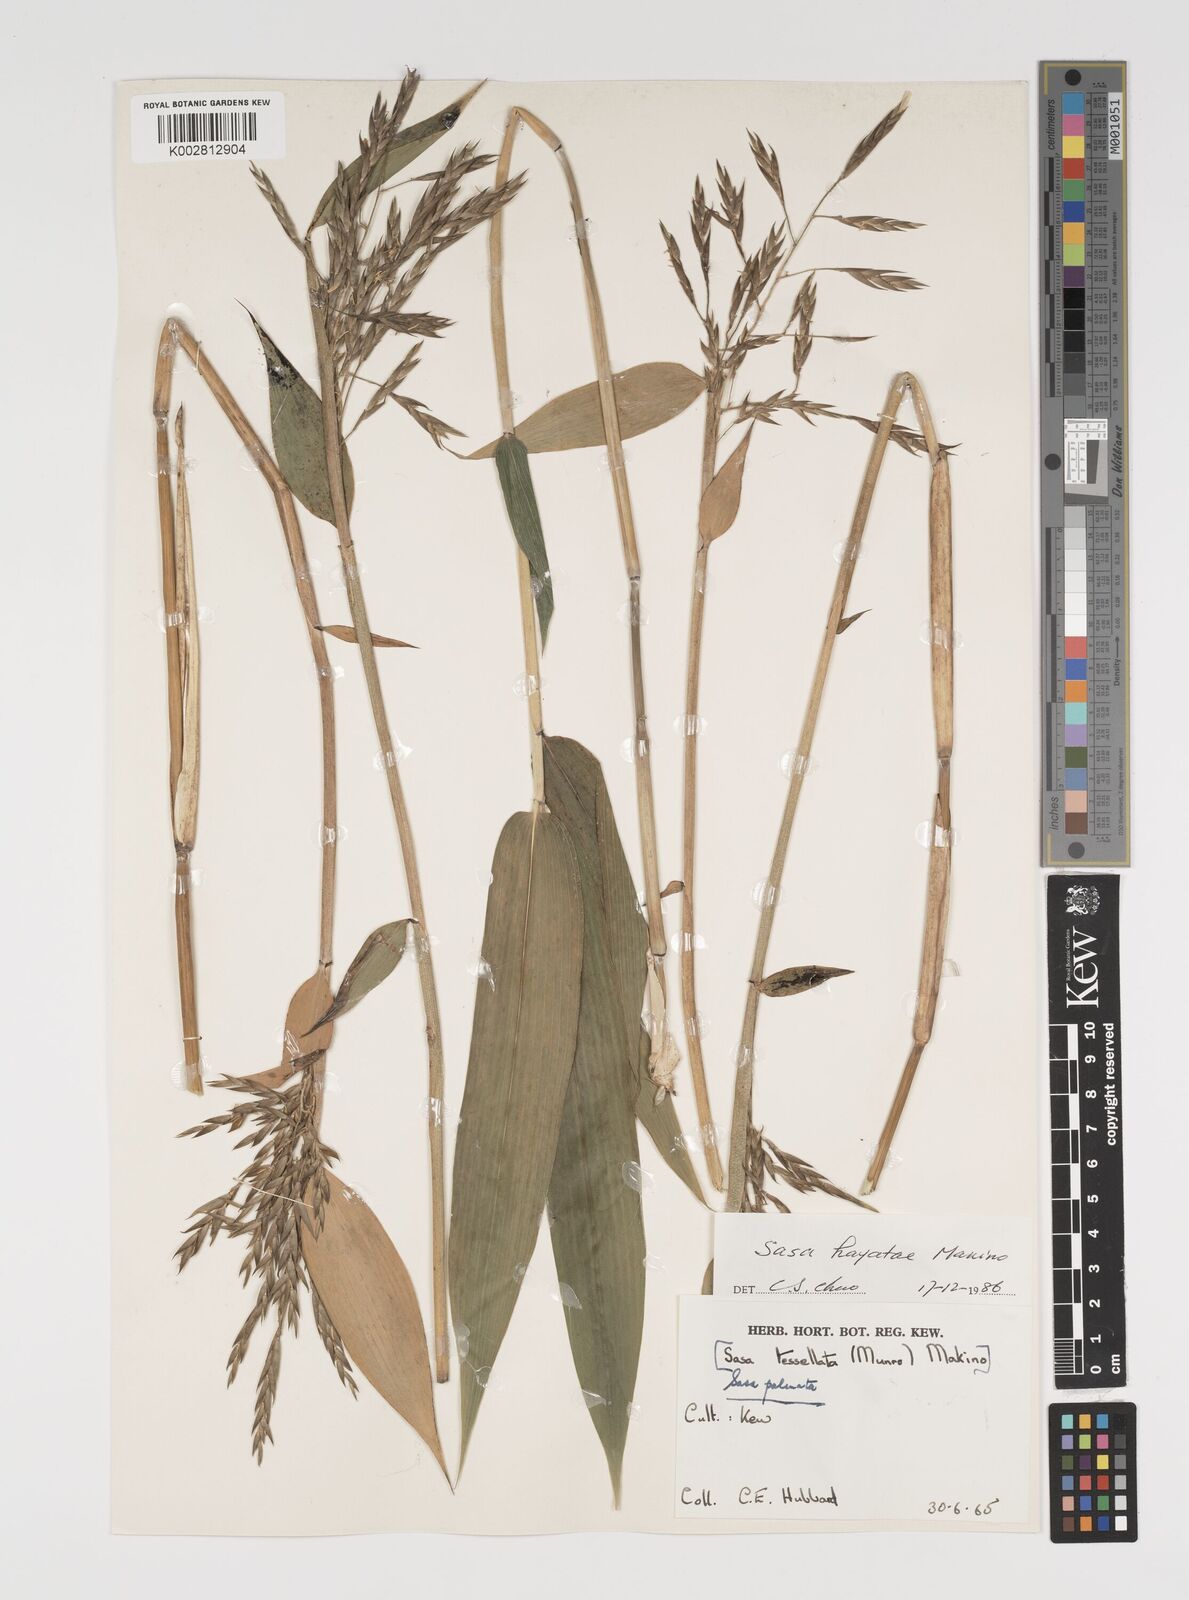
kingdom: Plantae
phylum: Tracheophyta
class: Liliopsida
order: Poales
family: Poaceae
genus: Sasa
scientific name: Sasa palmata
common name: Broad-leaved bamboo
